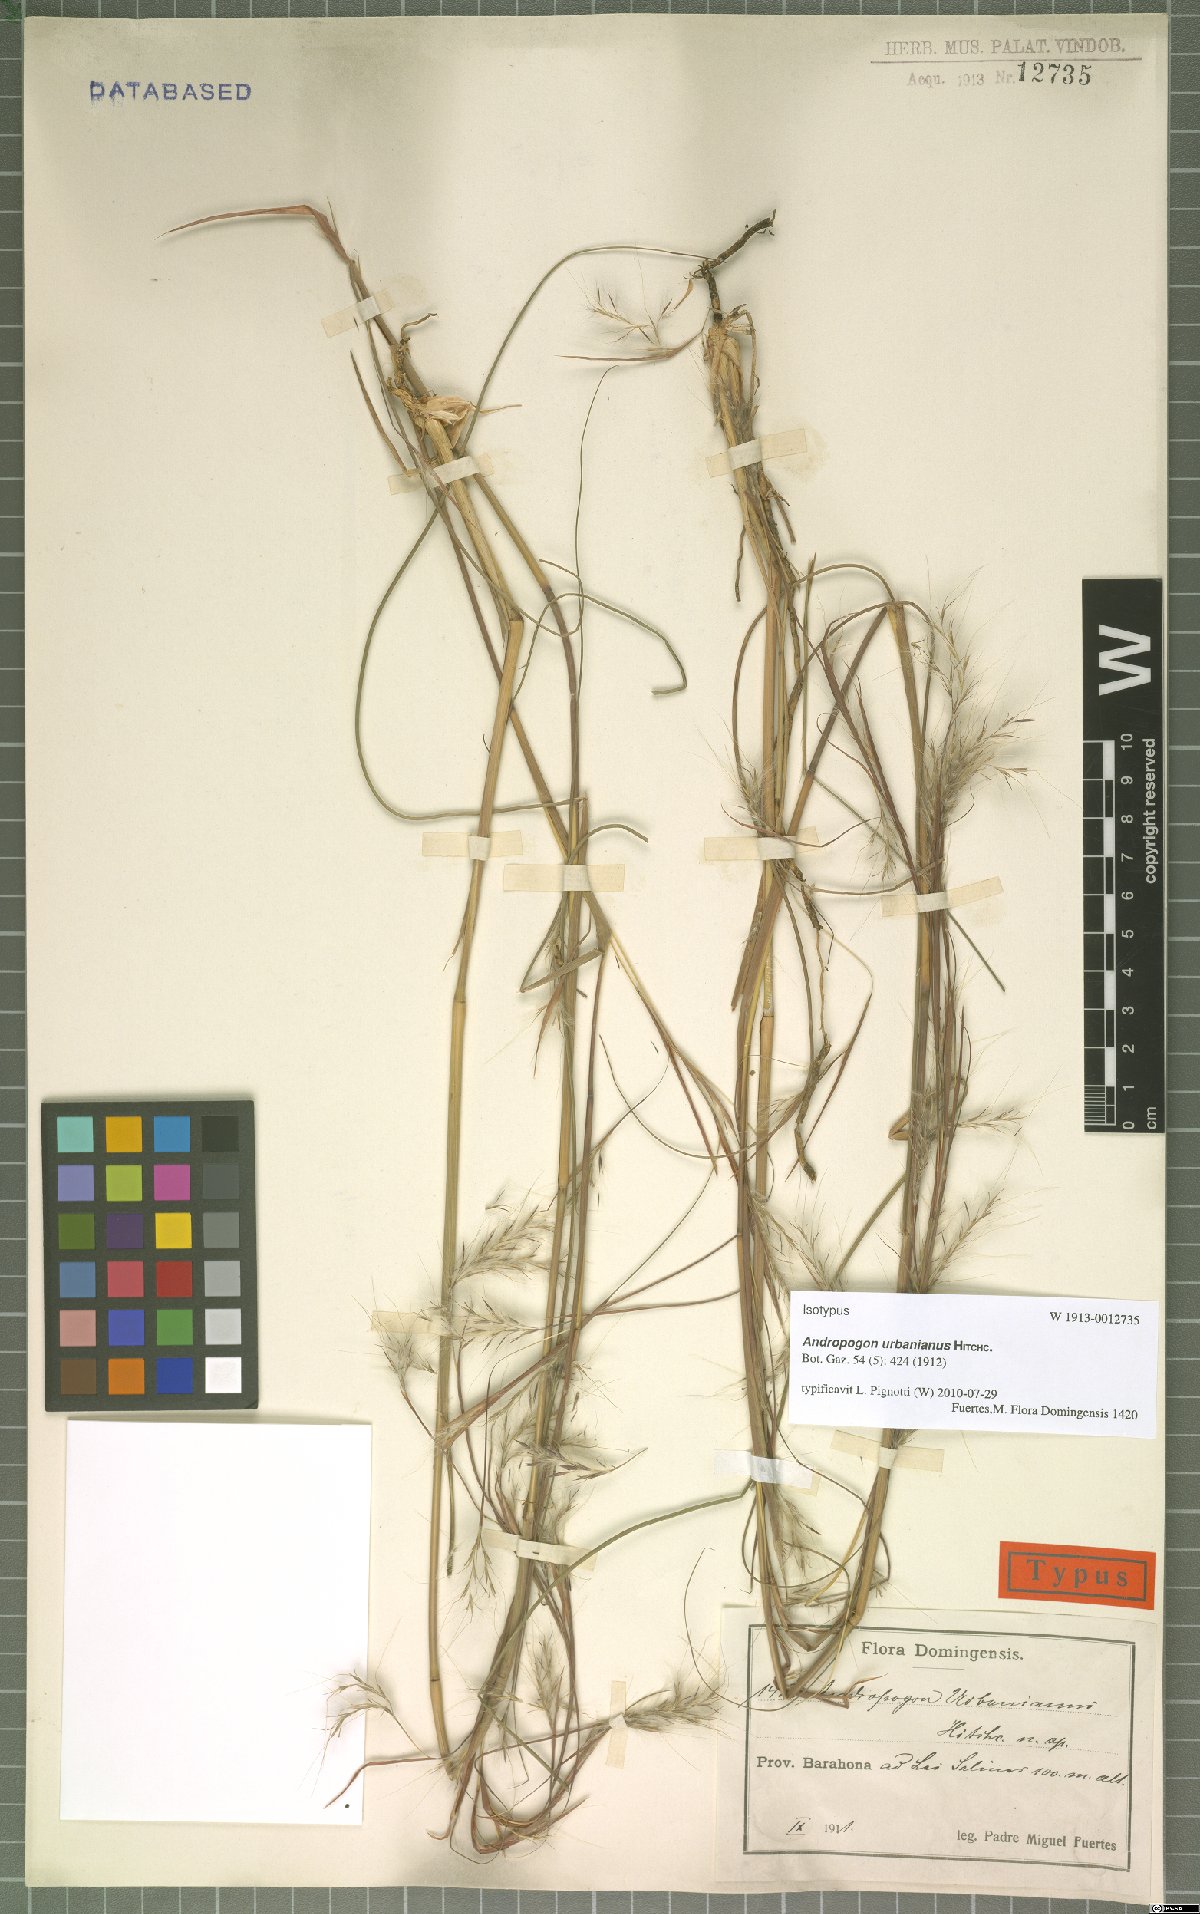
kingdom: Plantae
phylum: Tracheophyta
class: Liliopsida
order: Poales
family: Poaceae
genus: Andropogon
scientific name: Andropogon urbanianus
